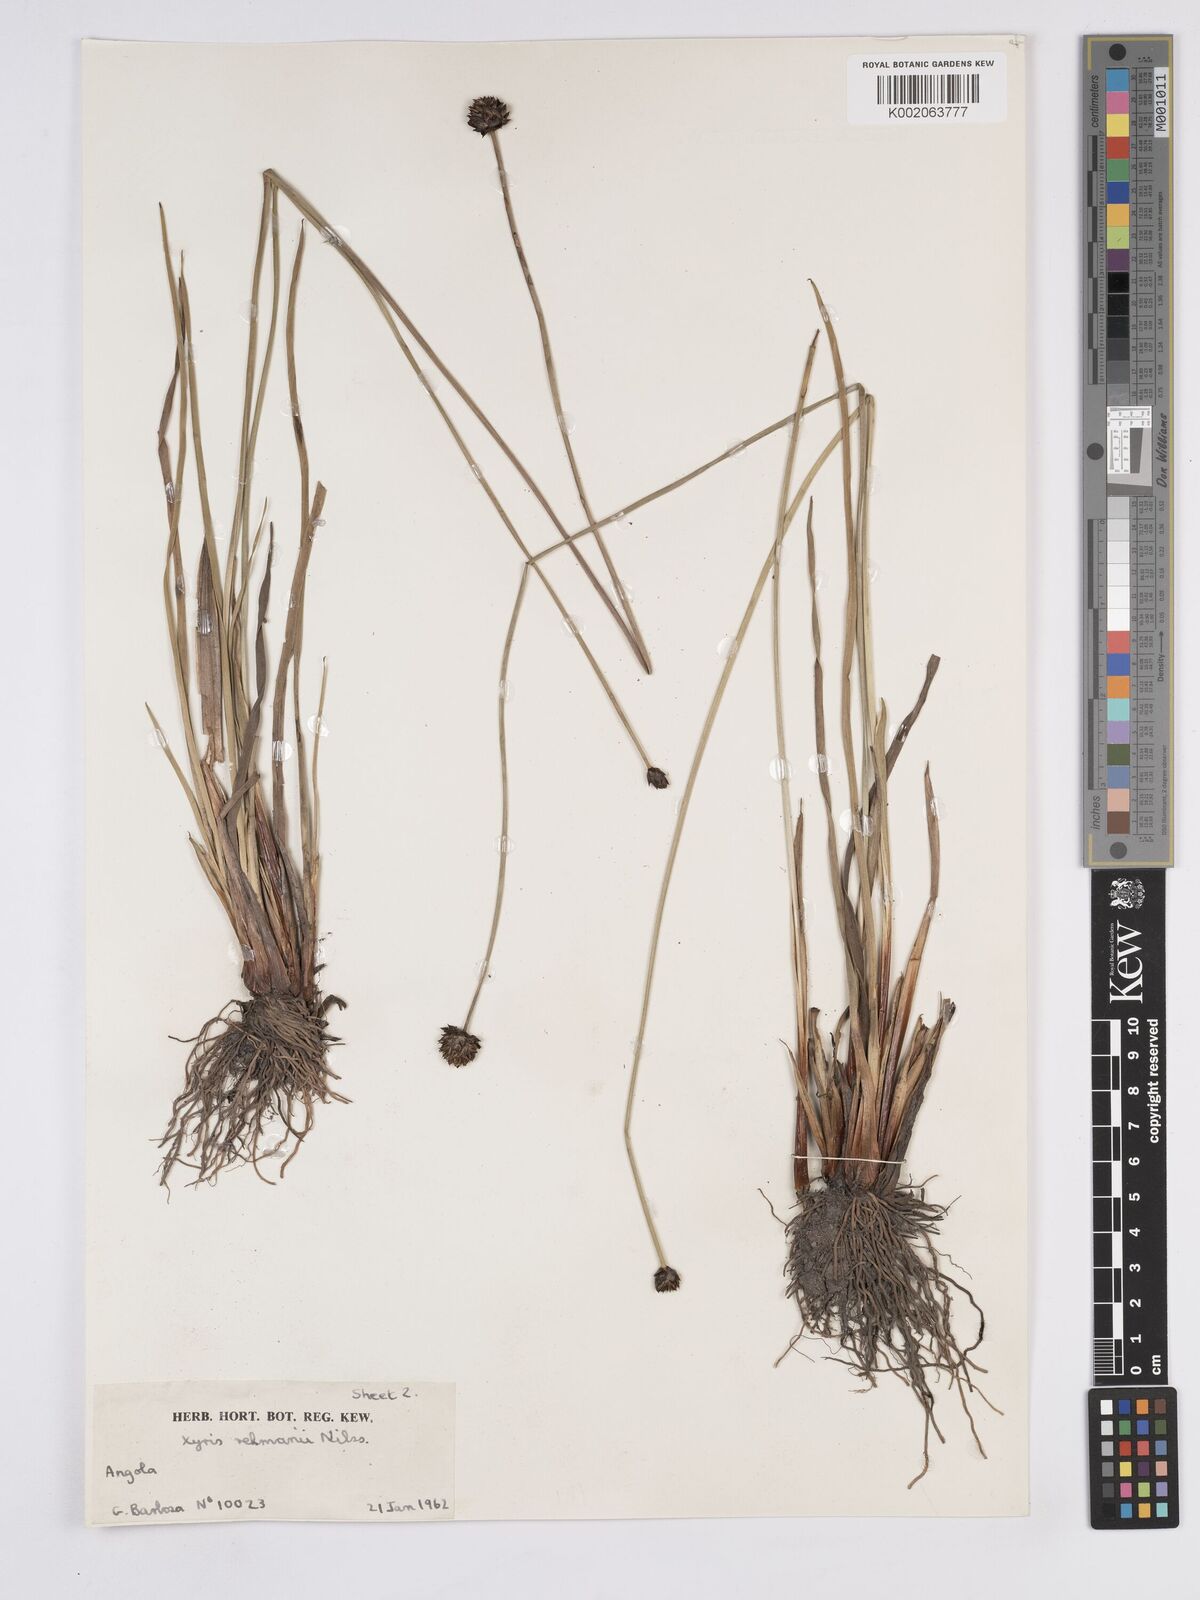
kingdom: Plantae
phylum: Tracheophyta
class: Liliopsida
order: Poales
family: Xyridaceae
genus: Xyris
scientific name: Xyris rehmannii
